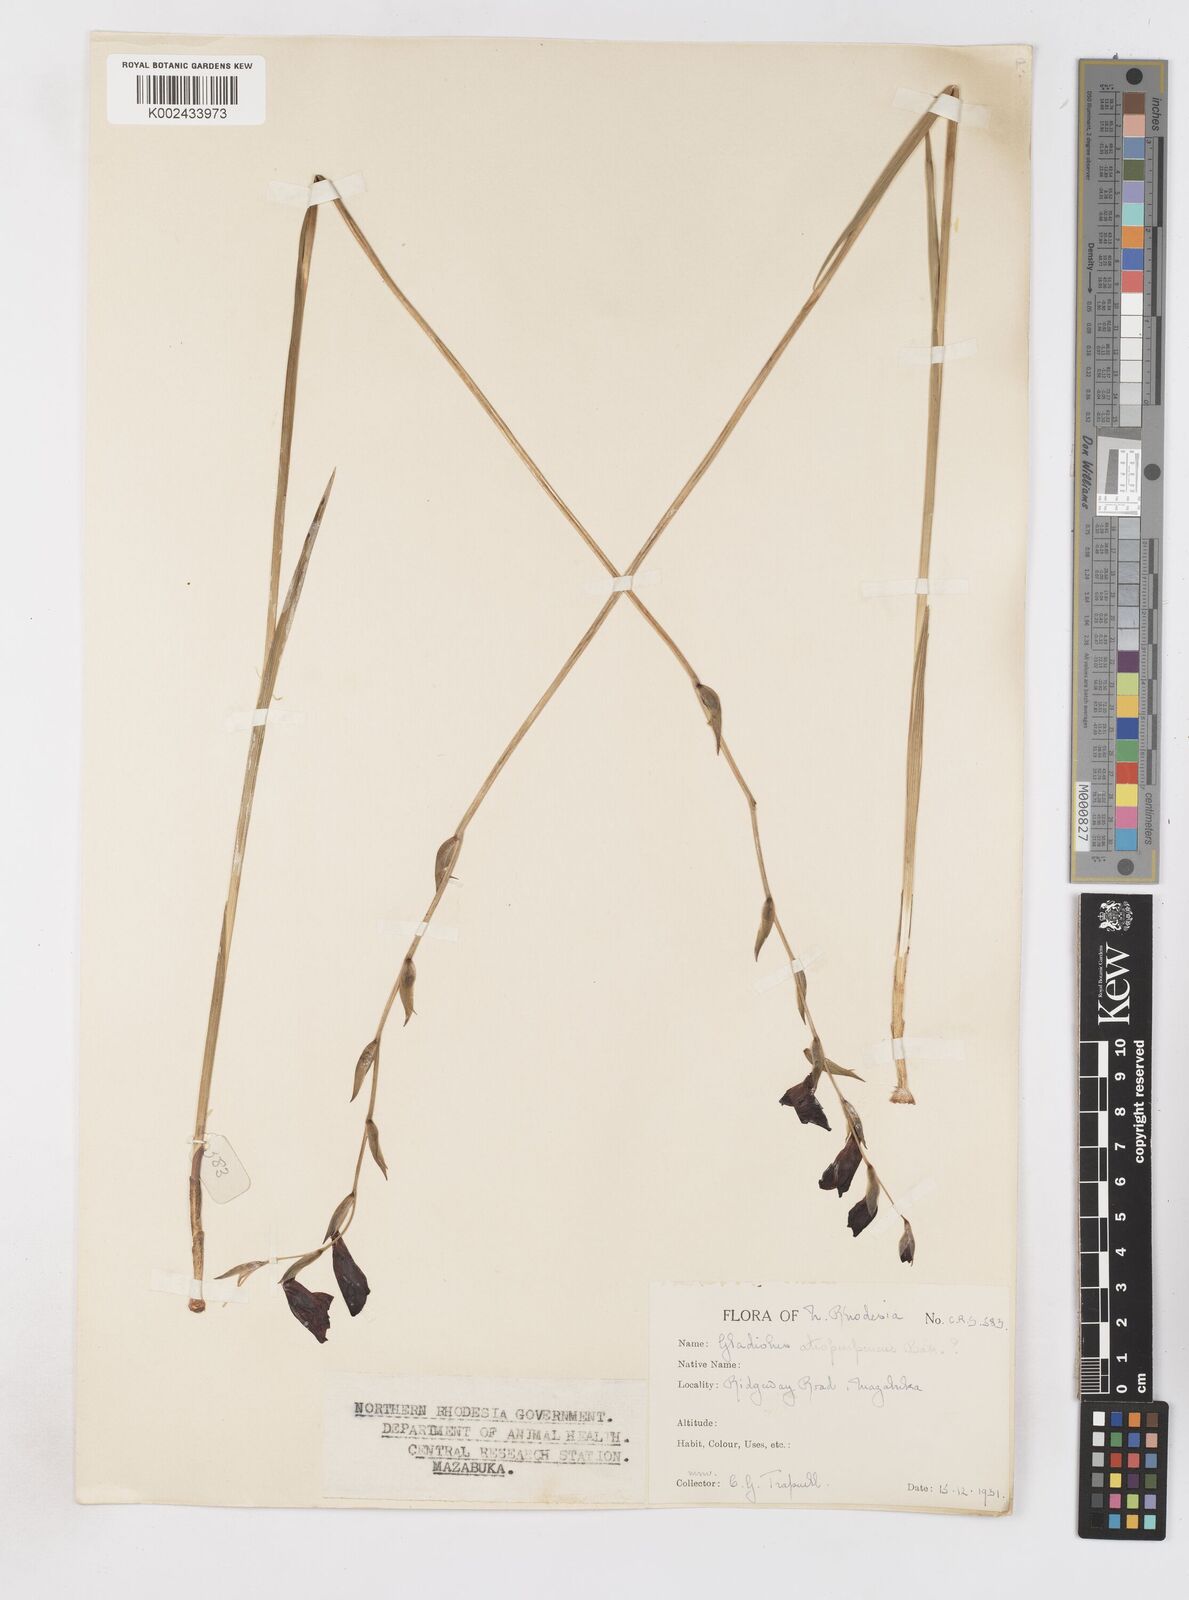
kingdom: Plantae
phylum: Tracheophyta
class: Liliopsida
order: Asparagales
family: Iridaceae
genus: Gladiolus
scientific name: Gladiolus atropurpureus
